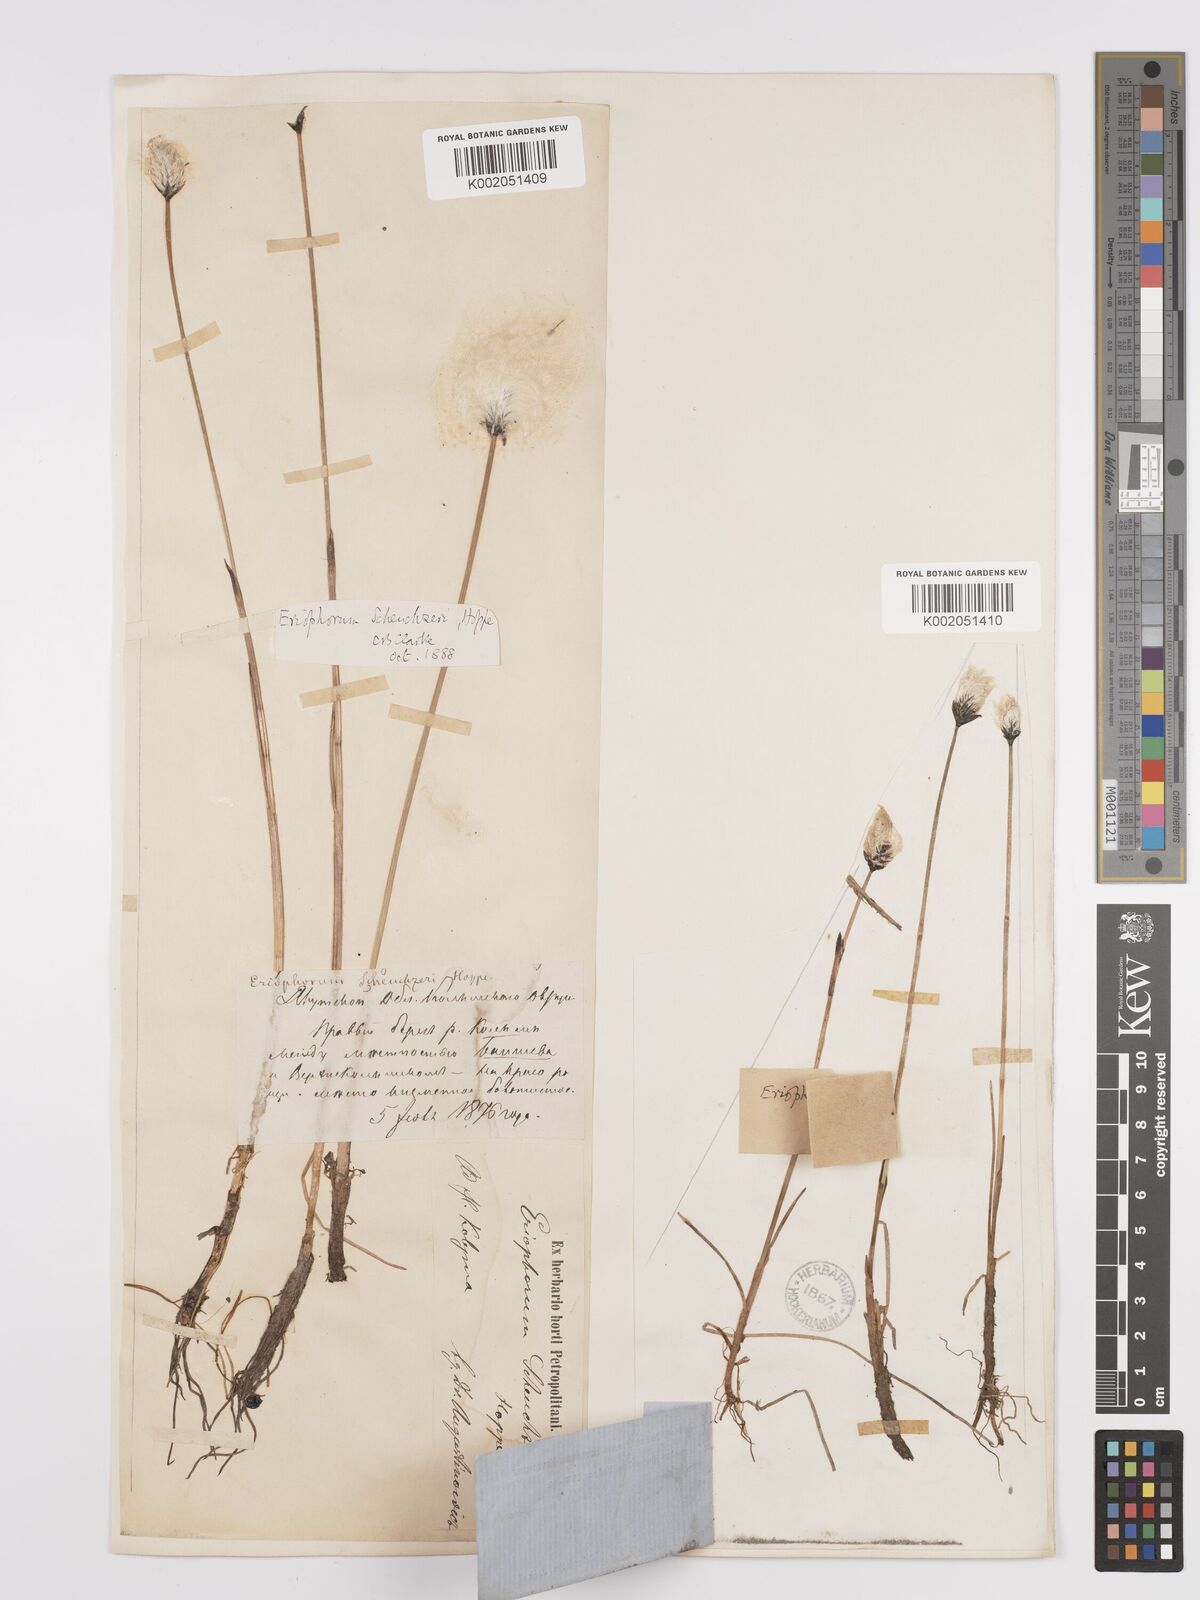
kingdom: Plantae
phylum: Tracheophyta
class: Liliopsida
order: Poales
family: Cyperaceae
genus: Eriophorum
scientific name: Eriophorum scheuchzeri
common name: Scheuchzer's cottongrass
